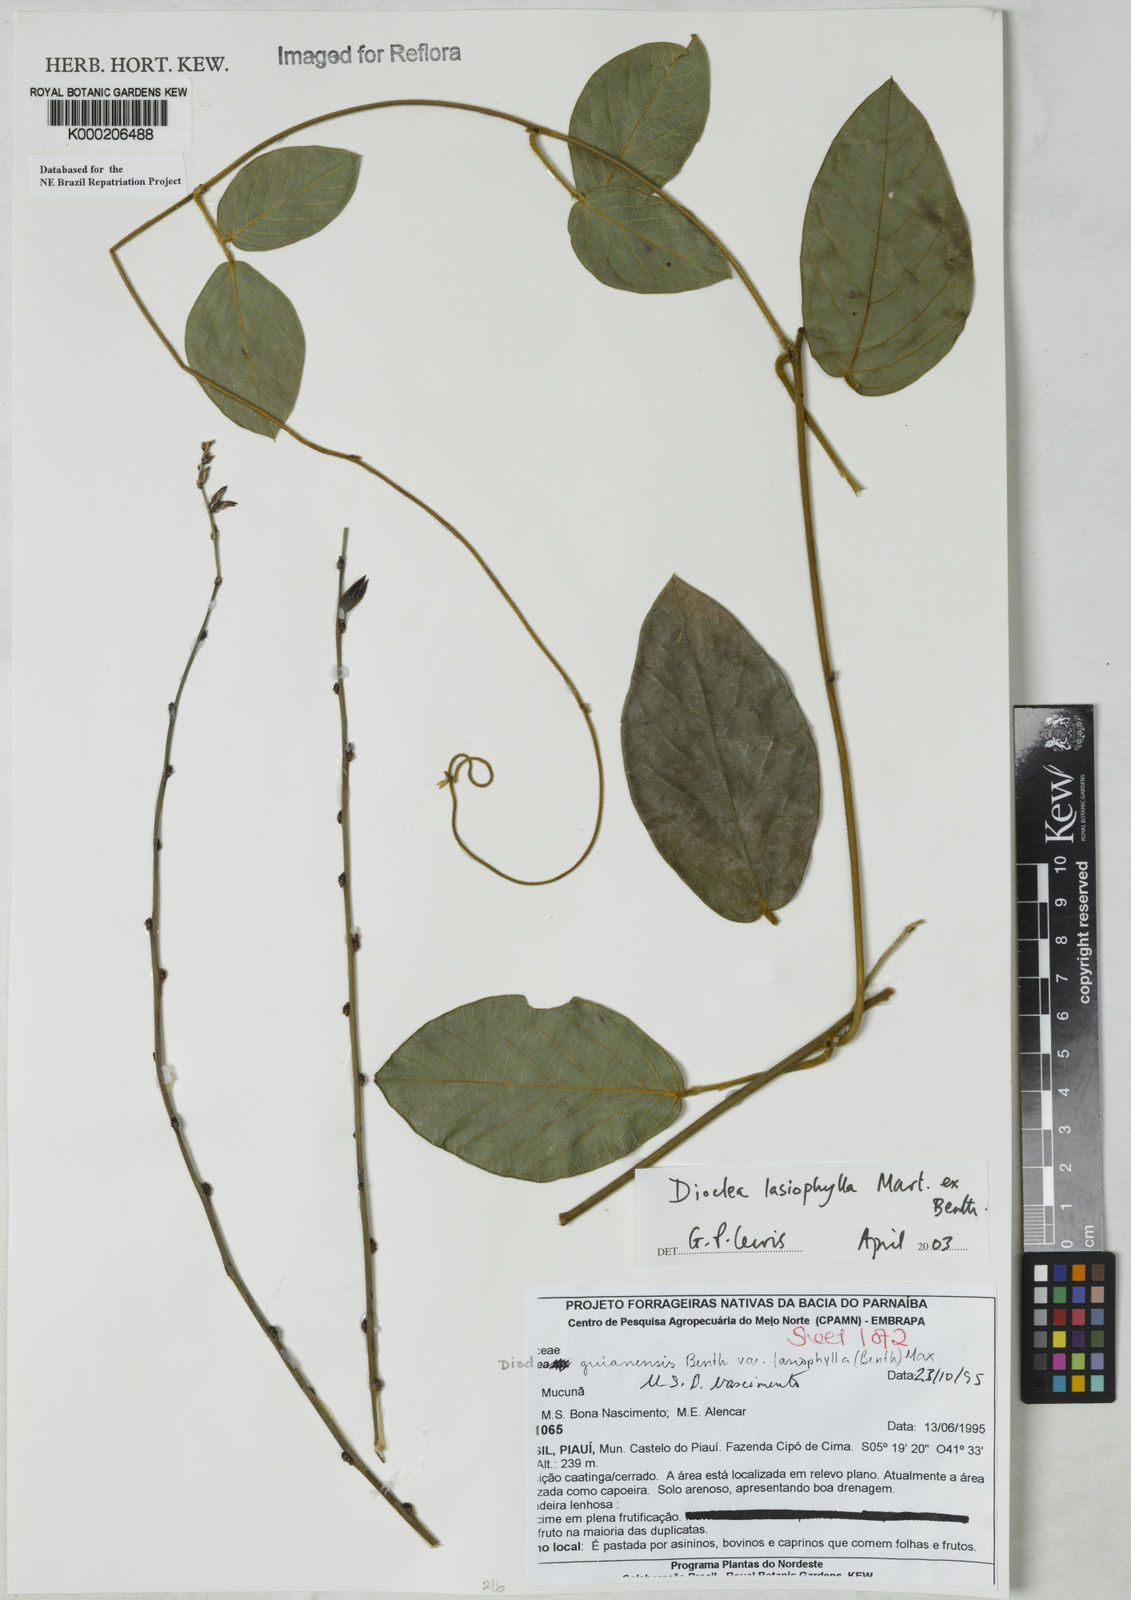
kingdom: Plantae
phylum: Tracheophyta
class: Magnoliopsida
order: Fabales
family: Fabaceae
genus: Dioclea
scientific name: Dioclea lasiophylla
